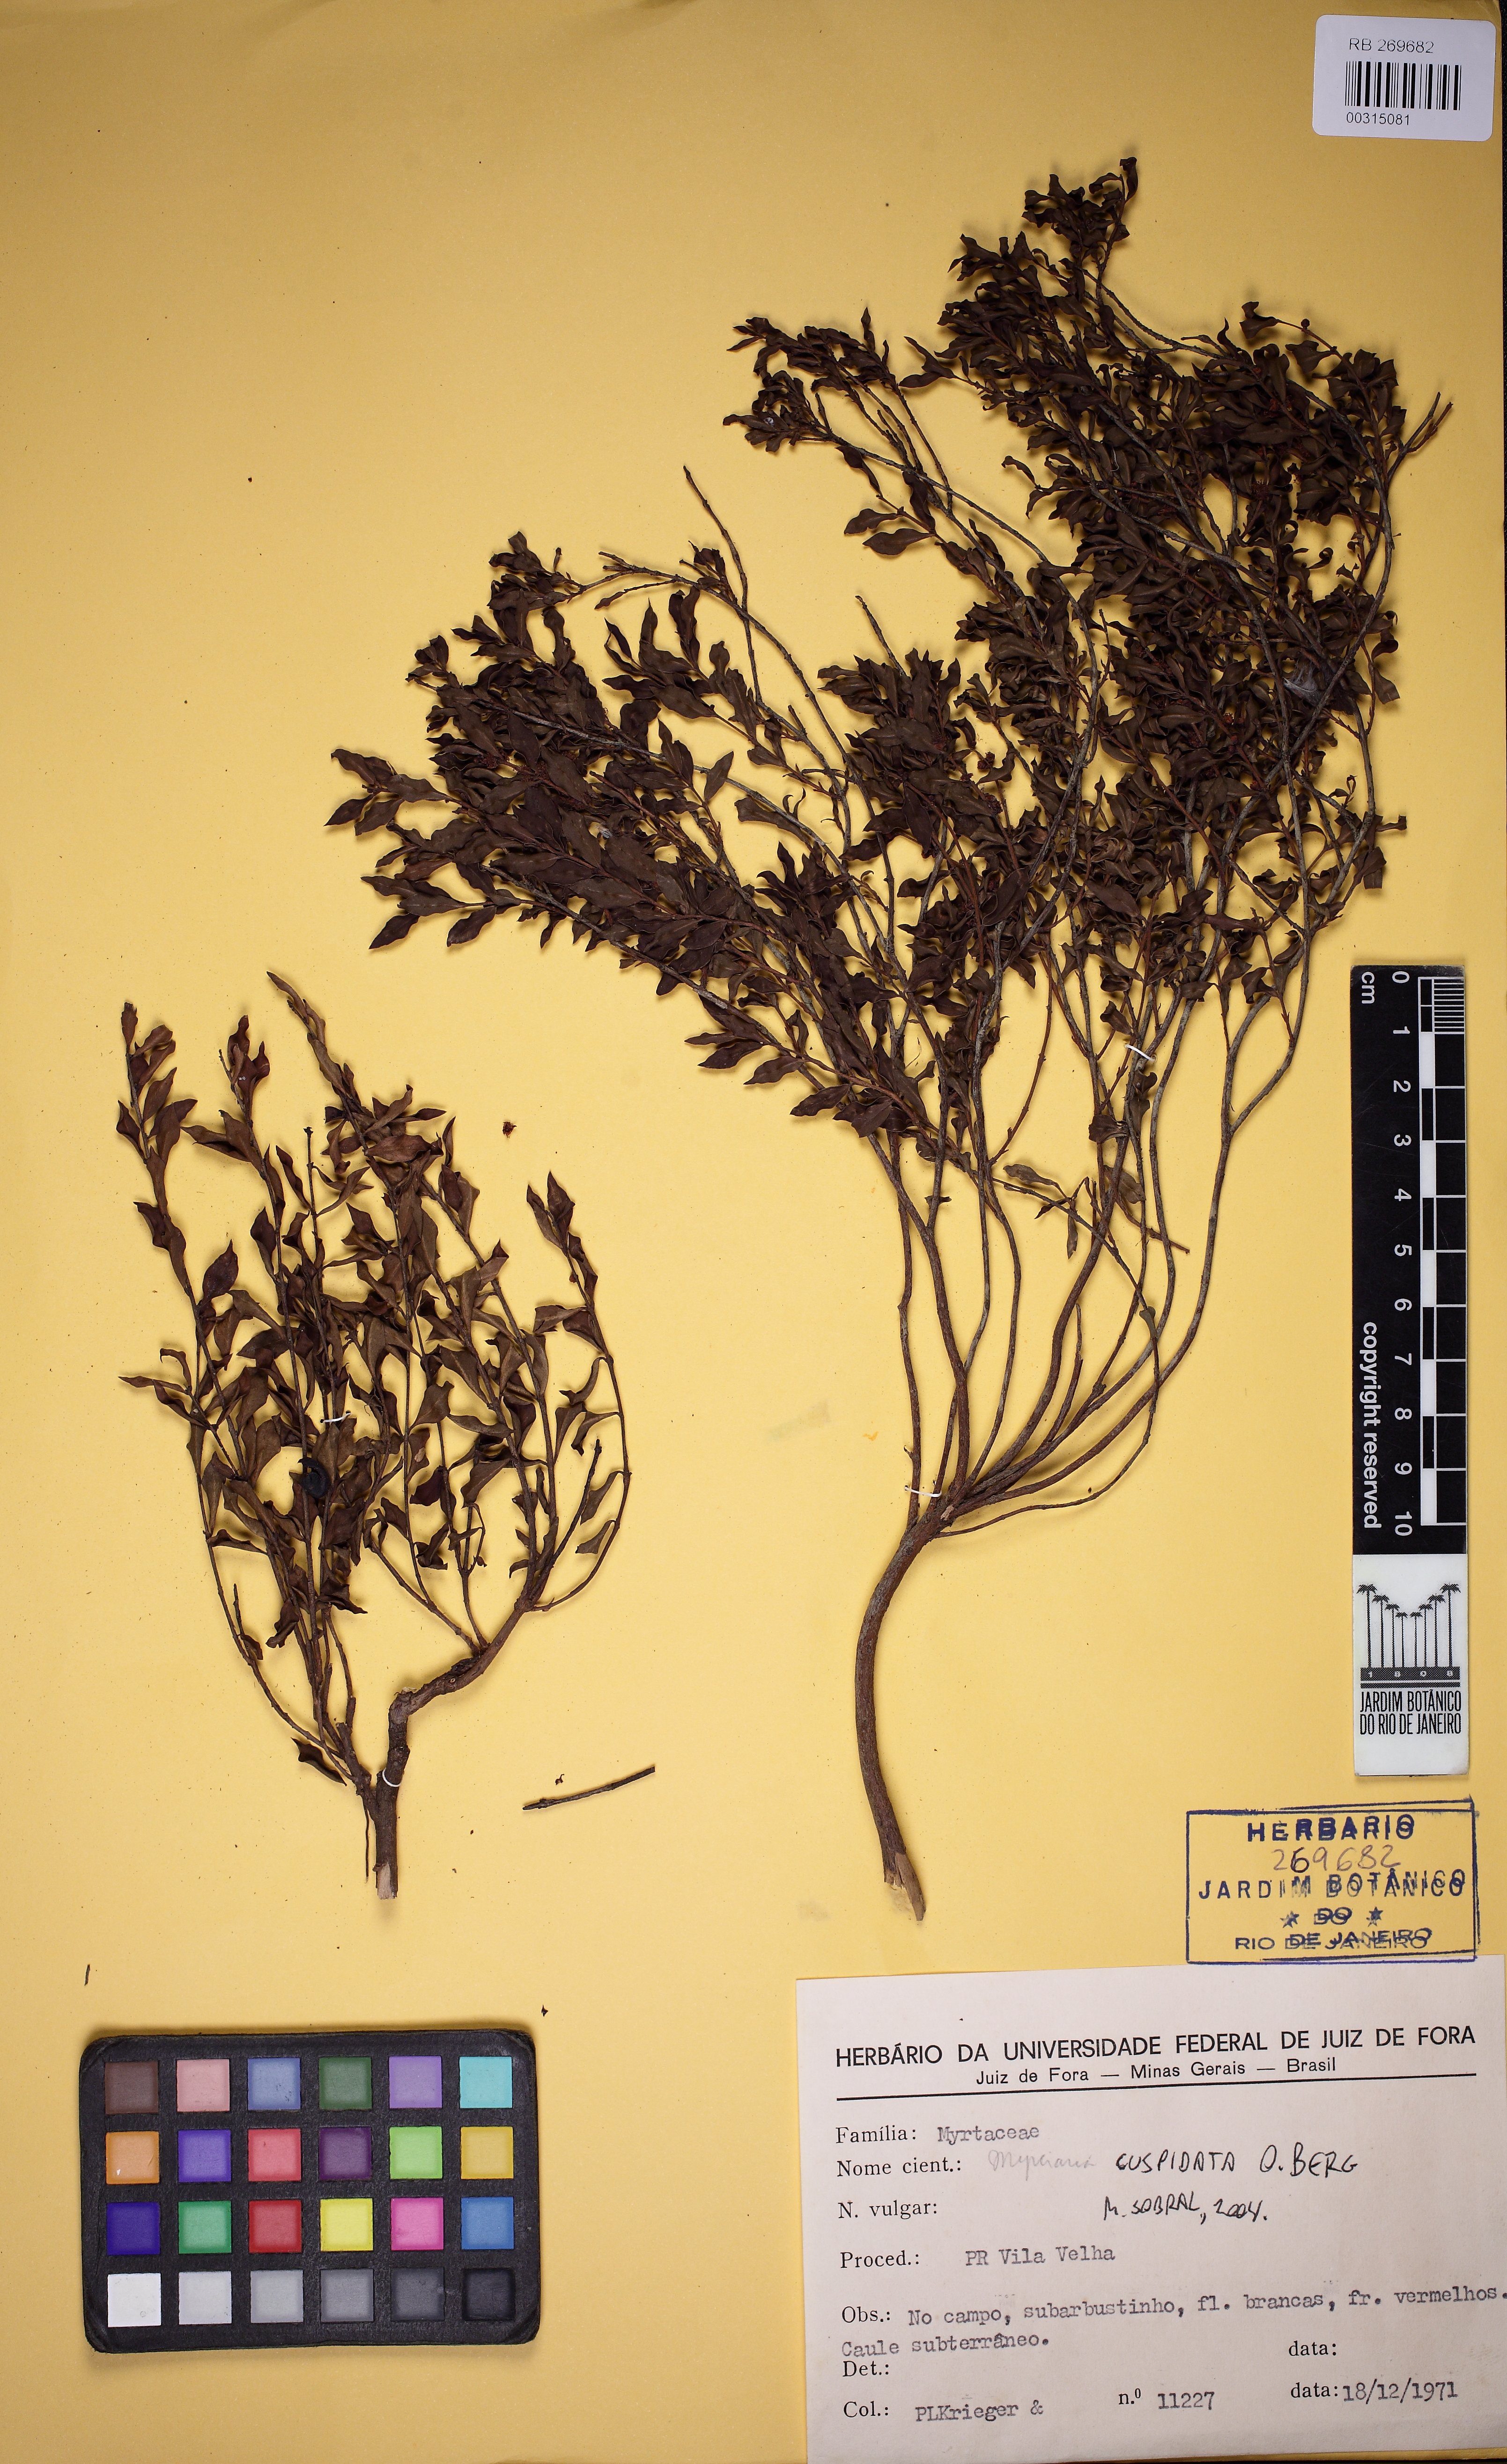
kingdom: Plantae
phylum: Tracheophyta
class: Magnoliopsida
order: Myrtales
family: Myrtaceae
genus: Myrciaria
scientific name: Myrciaria cuspidata
